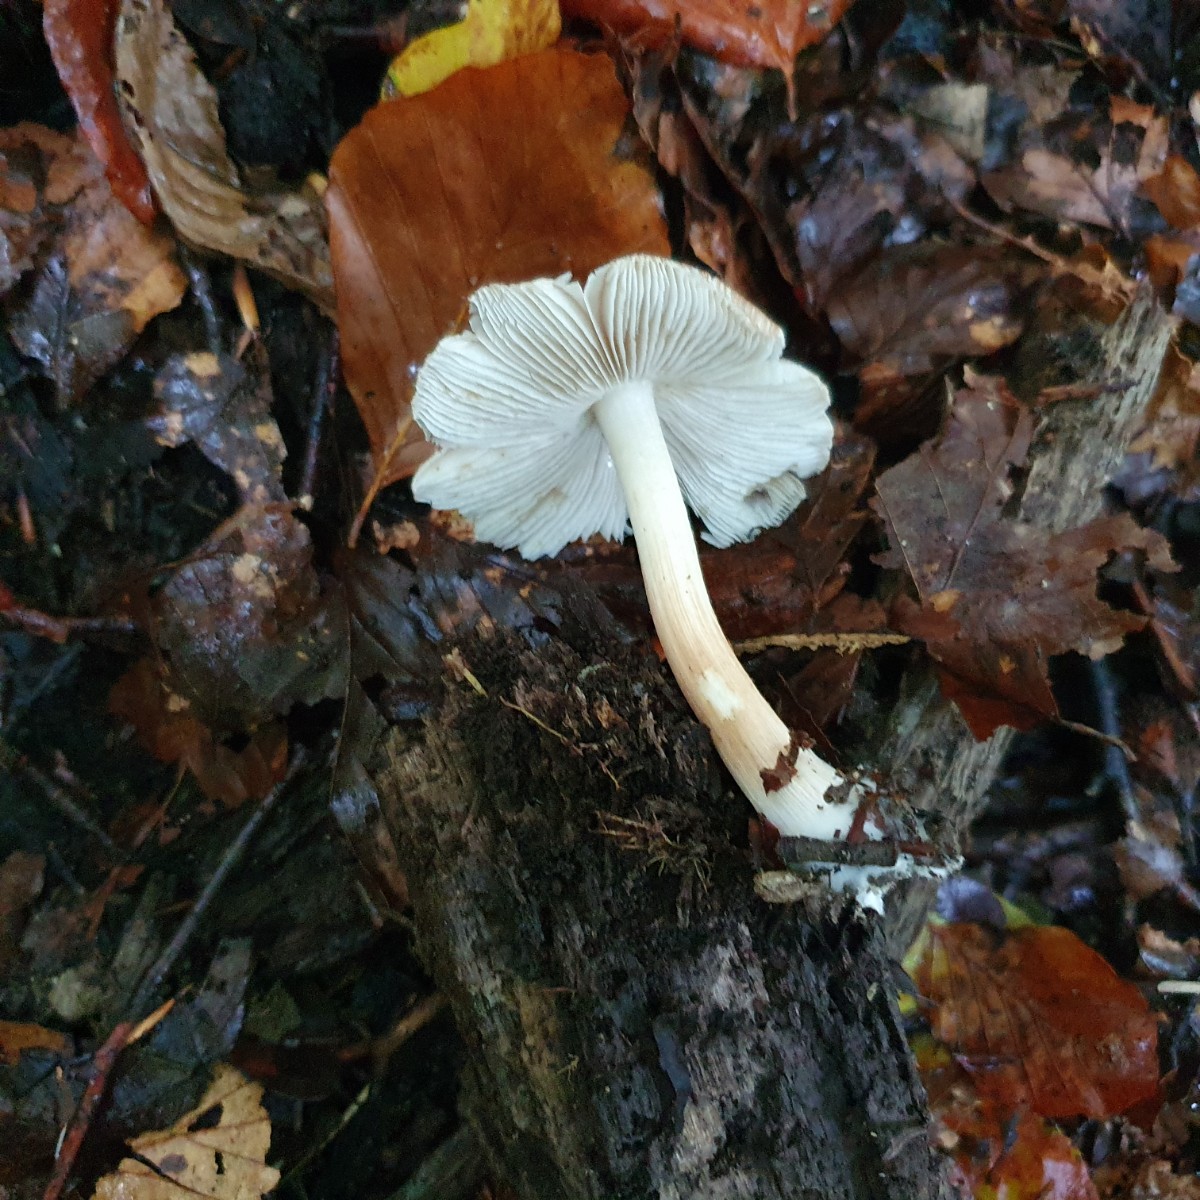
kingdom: Fungi
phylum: Basidiomycota
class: Agaricomycetes
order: Agaricales
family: Inocybaceae
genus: Inosperma
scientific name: Inosperma
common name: Trævlhat
